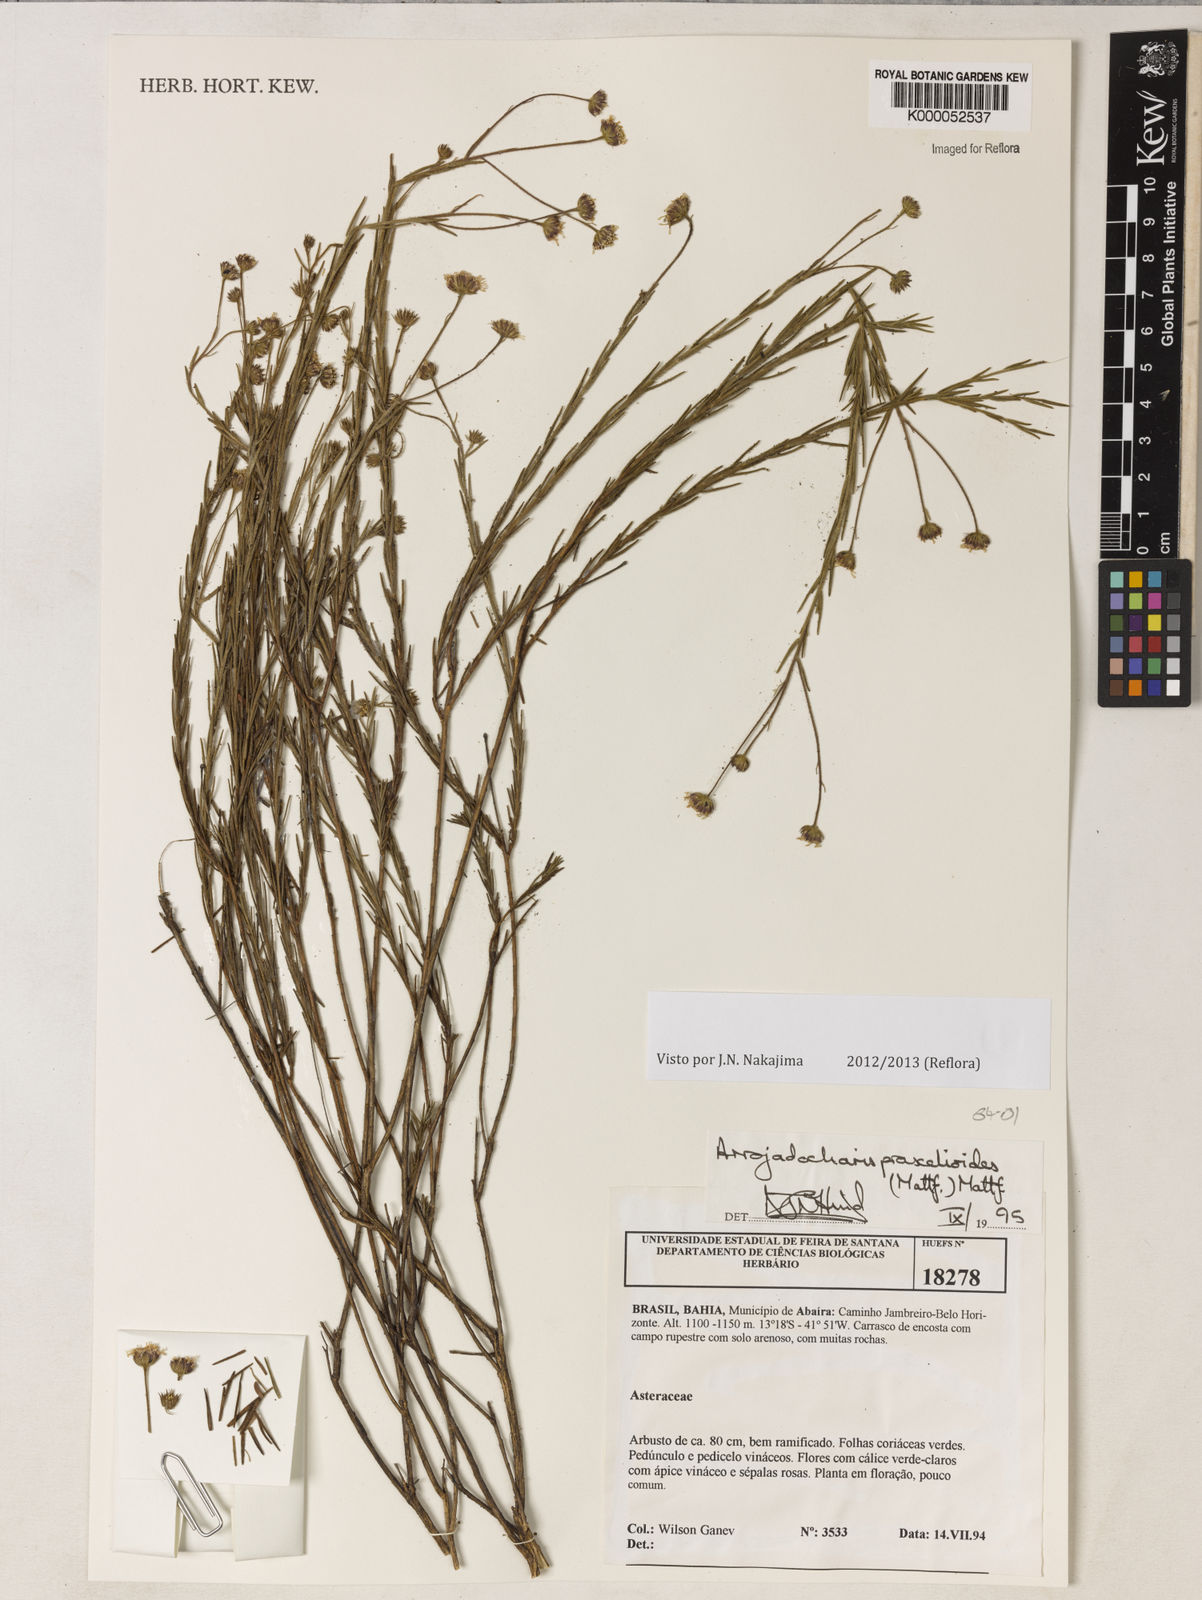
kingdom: Plantae
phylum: Tracheophyta
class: Magnoliopsida
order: Asterales
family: Asteraceae
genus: Arrojadocharis
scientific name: Arrojadocharis praxeloides
